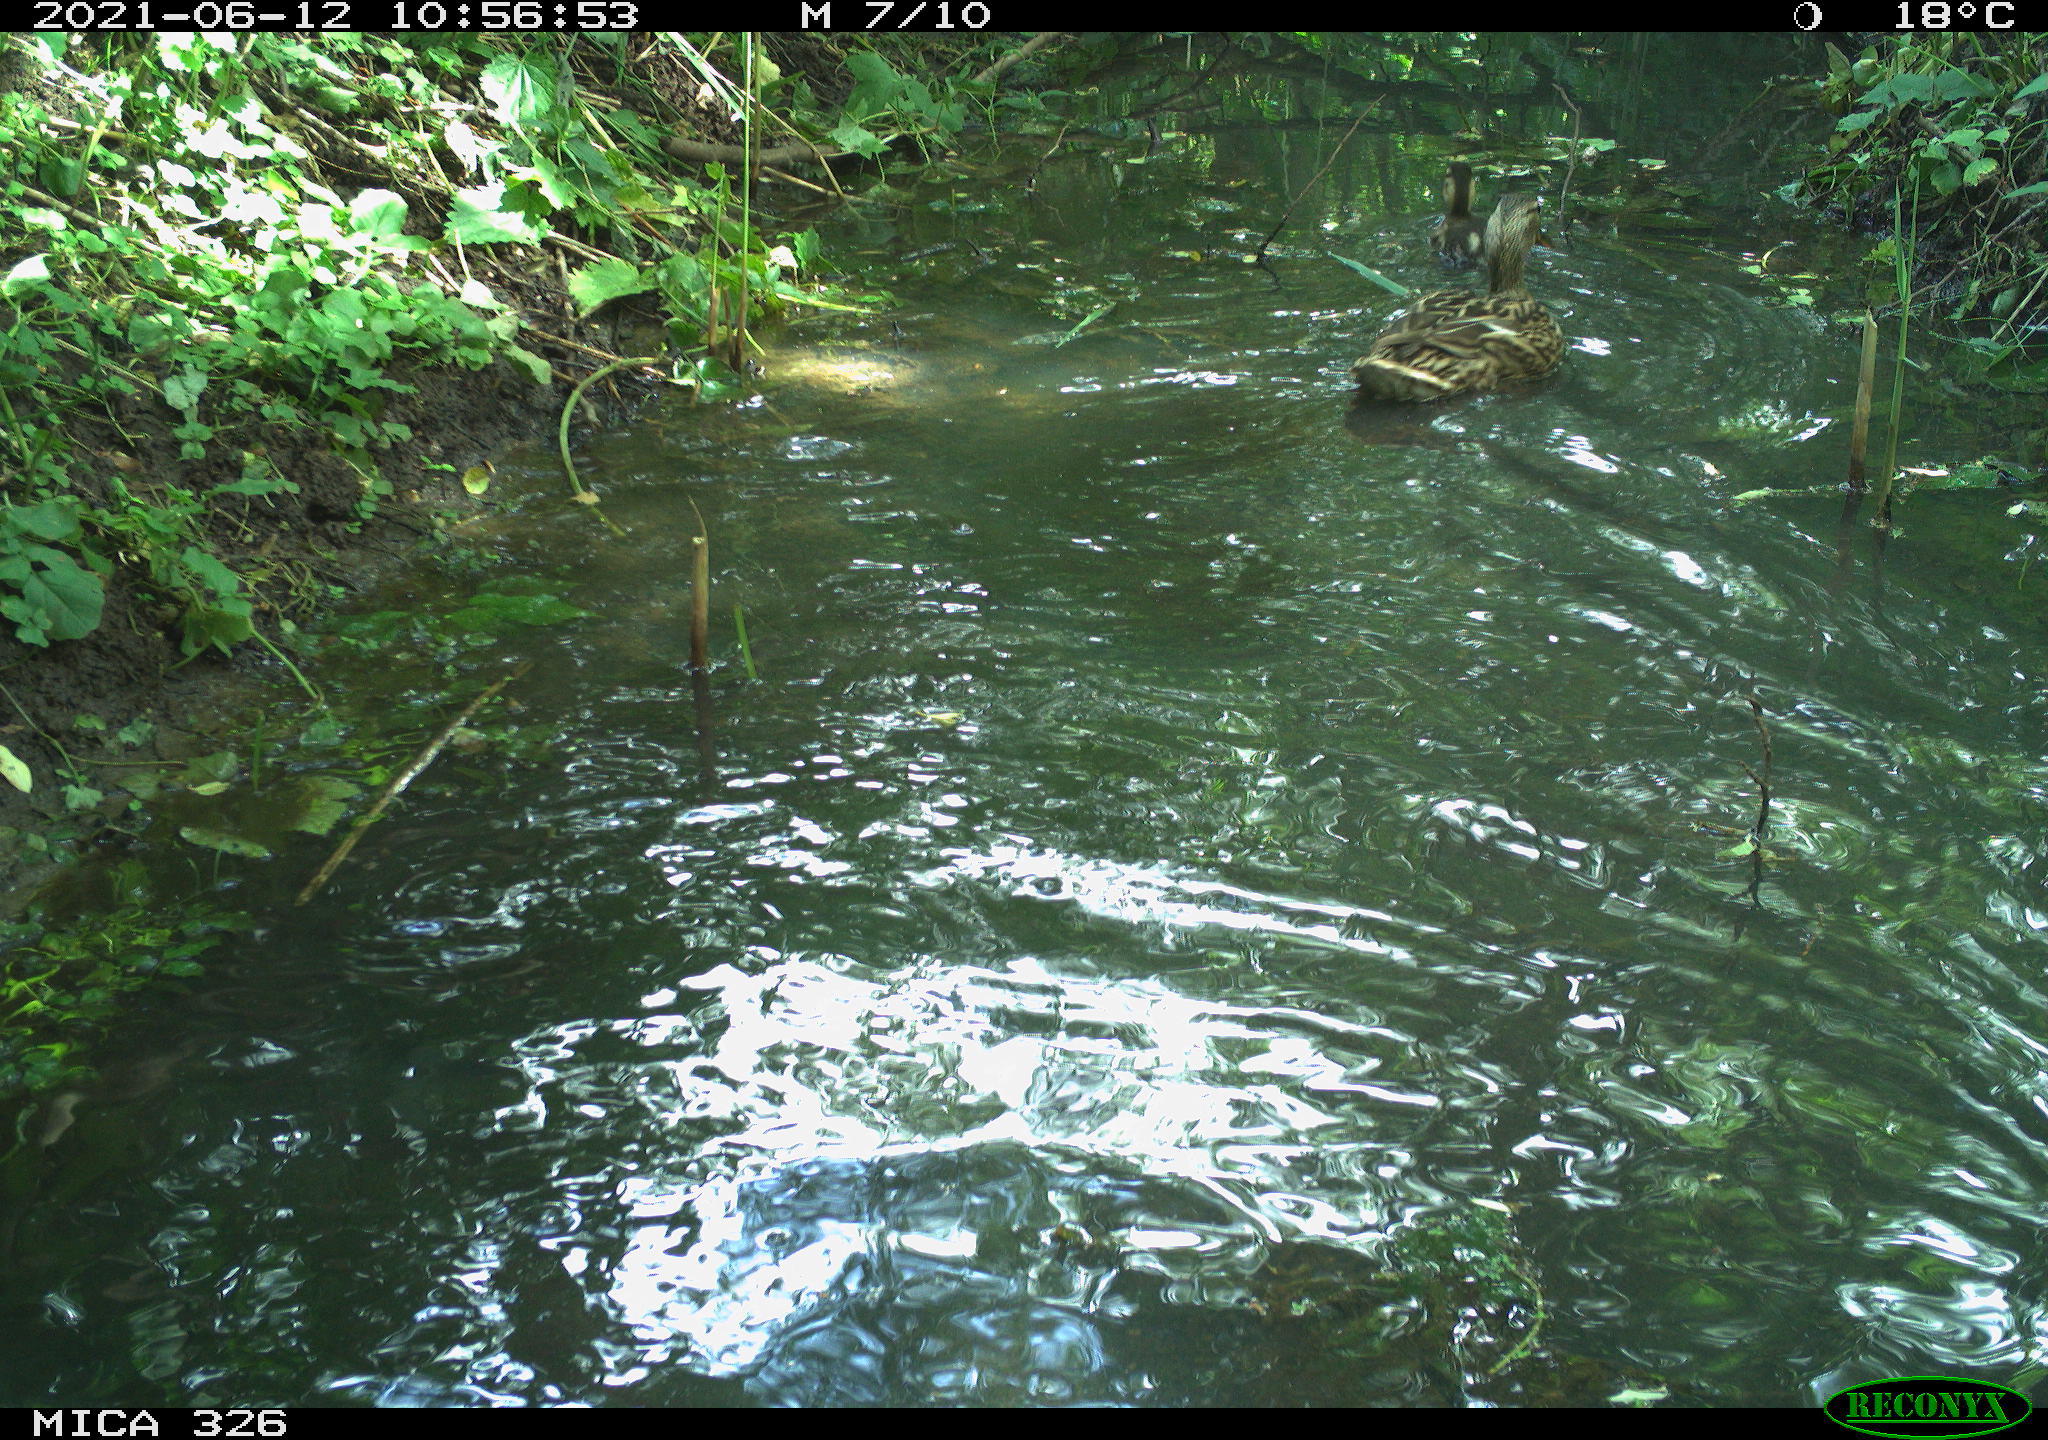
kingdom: Animalia
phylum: Chordata
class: Aves
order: Anseriformes
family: Anatidae
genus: Anas
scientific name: Anas platyrhynchos
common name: Mallard
